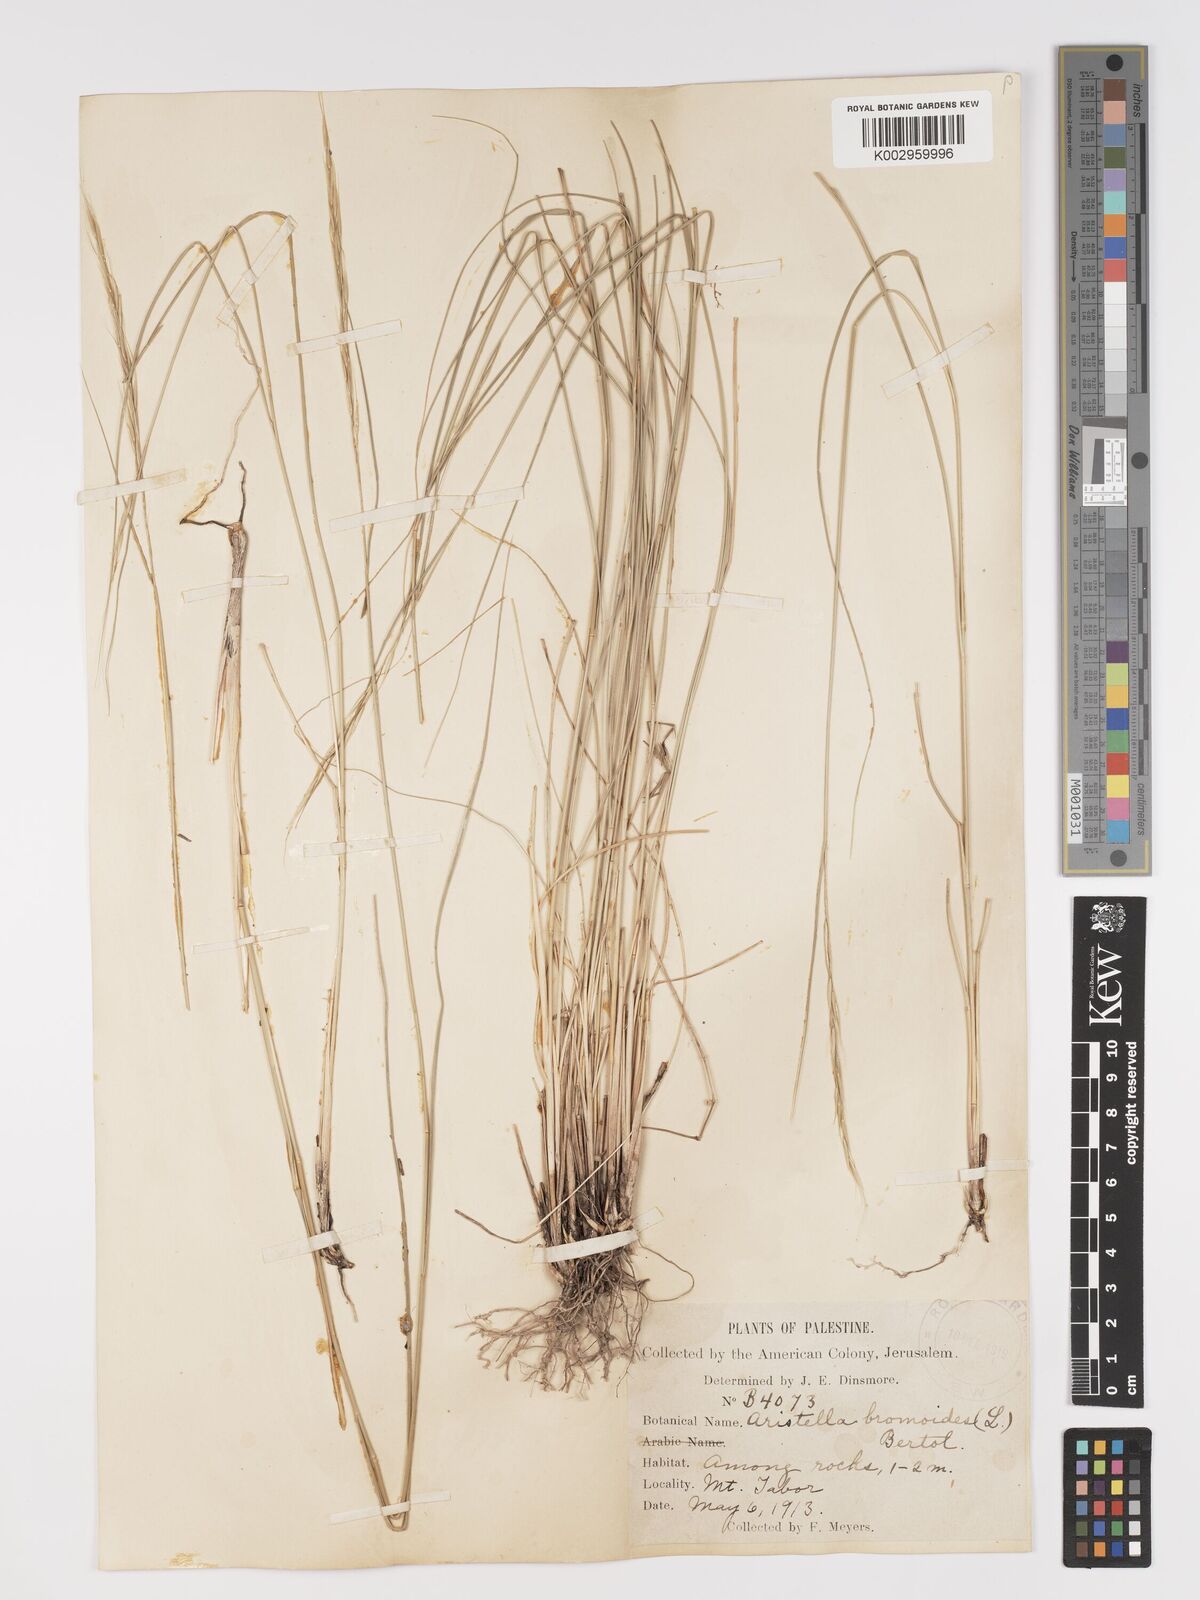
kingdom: Plantae
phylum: Tracheophyta
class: Liliopsida
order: Poales
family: Poaceae
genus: Achnatherum
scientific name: Achnatherum bromoides
